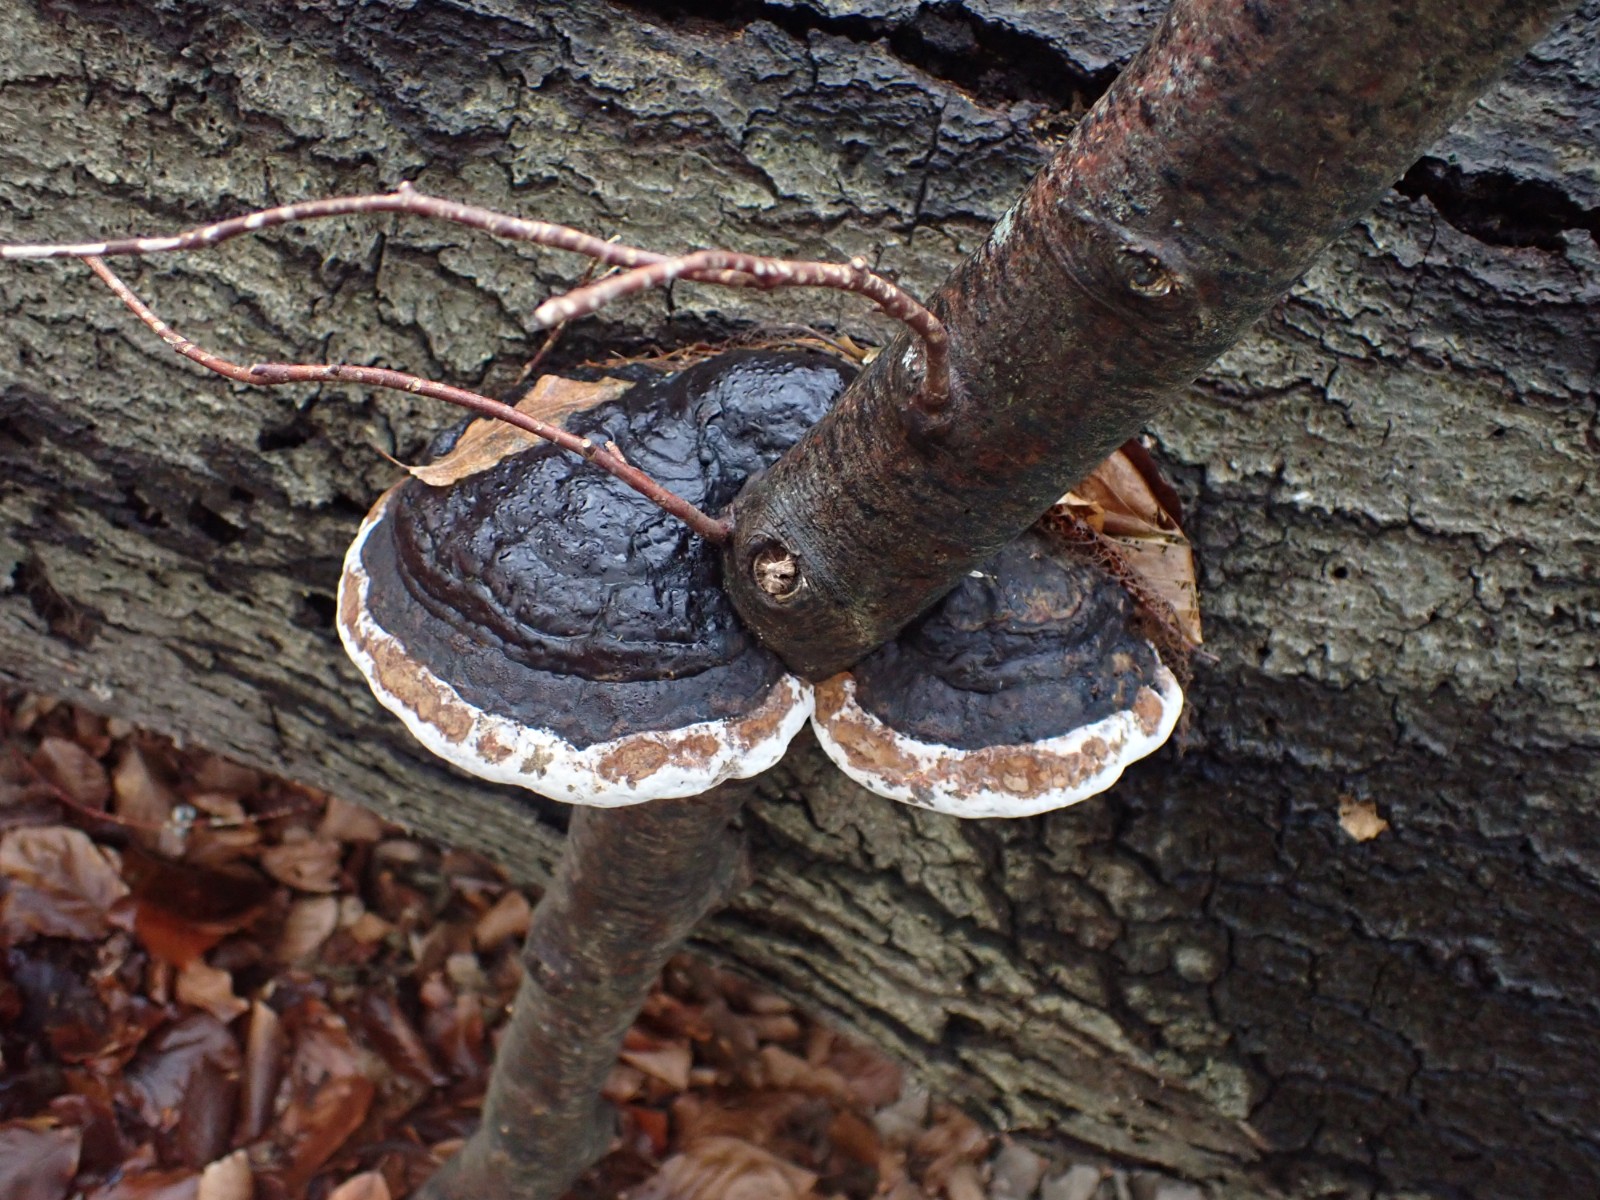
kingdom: Fungi
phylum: Basidiomycota
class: Agaricomycetes
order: Polyporales
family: Fomitopsidaceae
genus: Fomitopsis
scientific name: Fomitopsis pinicola
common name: randbæltet hovporesvamp
